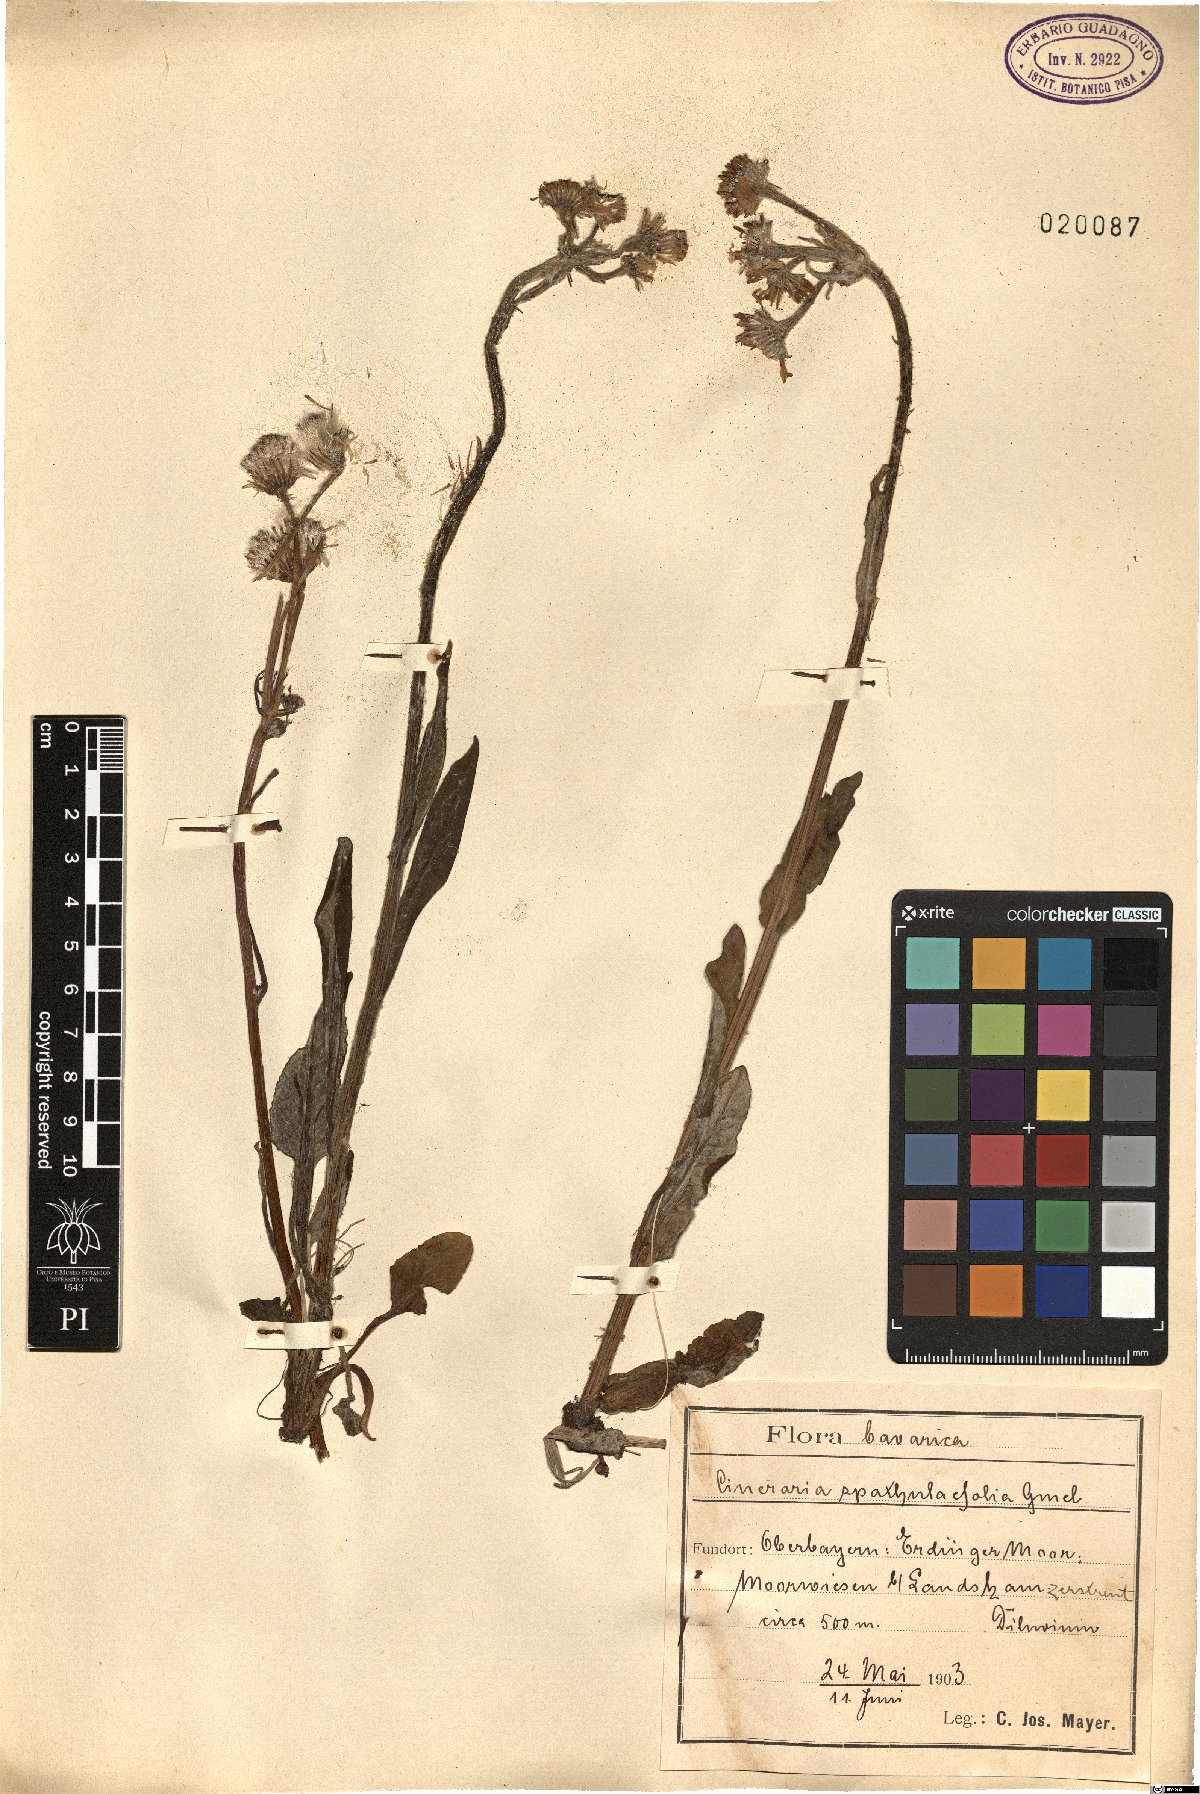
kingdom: Plantae
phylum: Tracheophyta
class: Magnoliopsida
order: Asterales
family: Asteraceae
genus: Tephroseris
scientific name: Tephroseris helenitis
